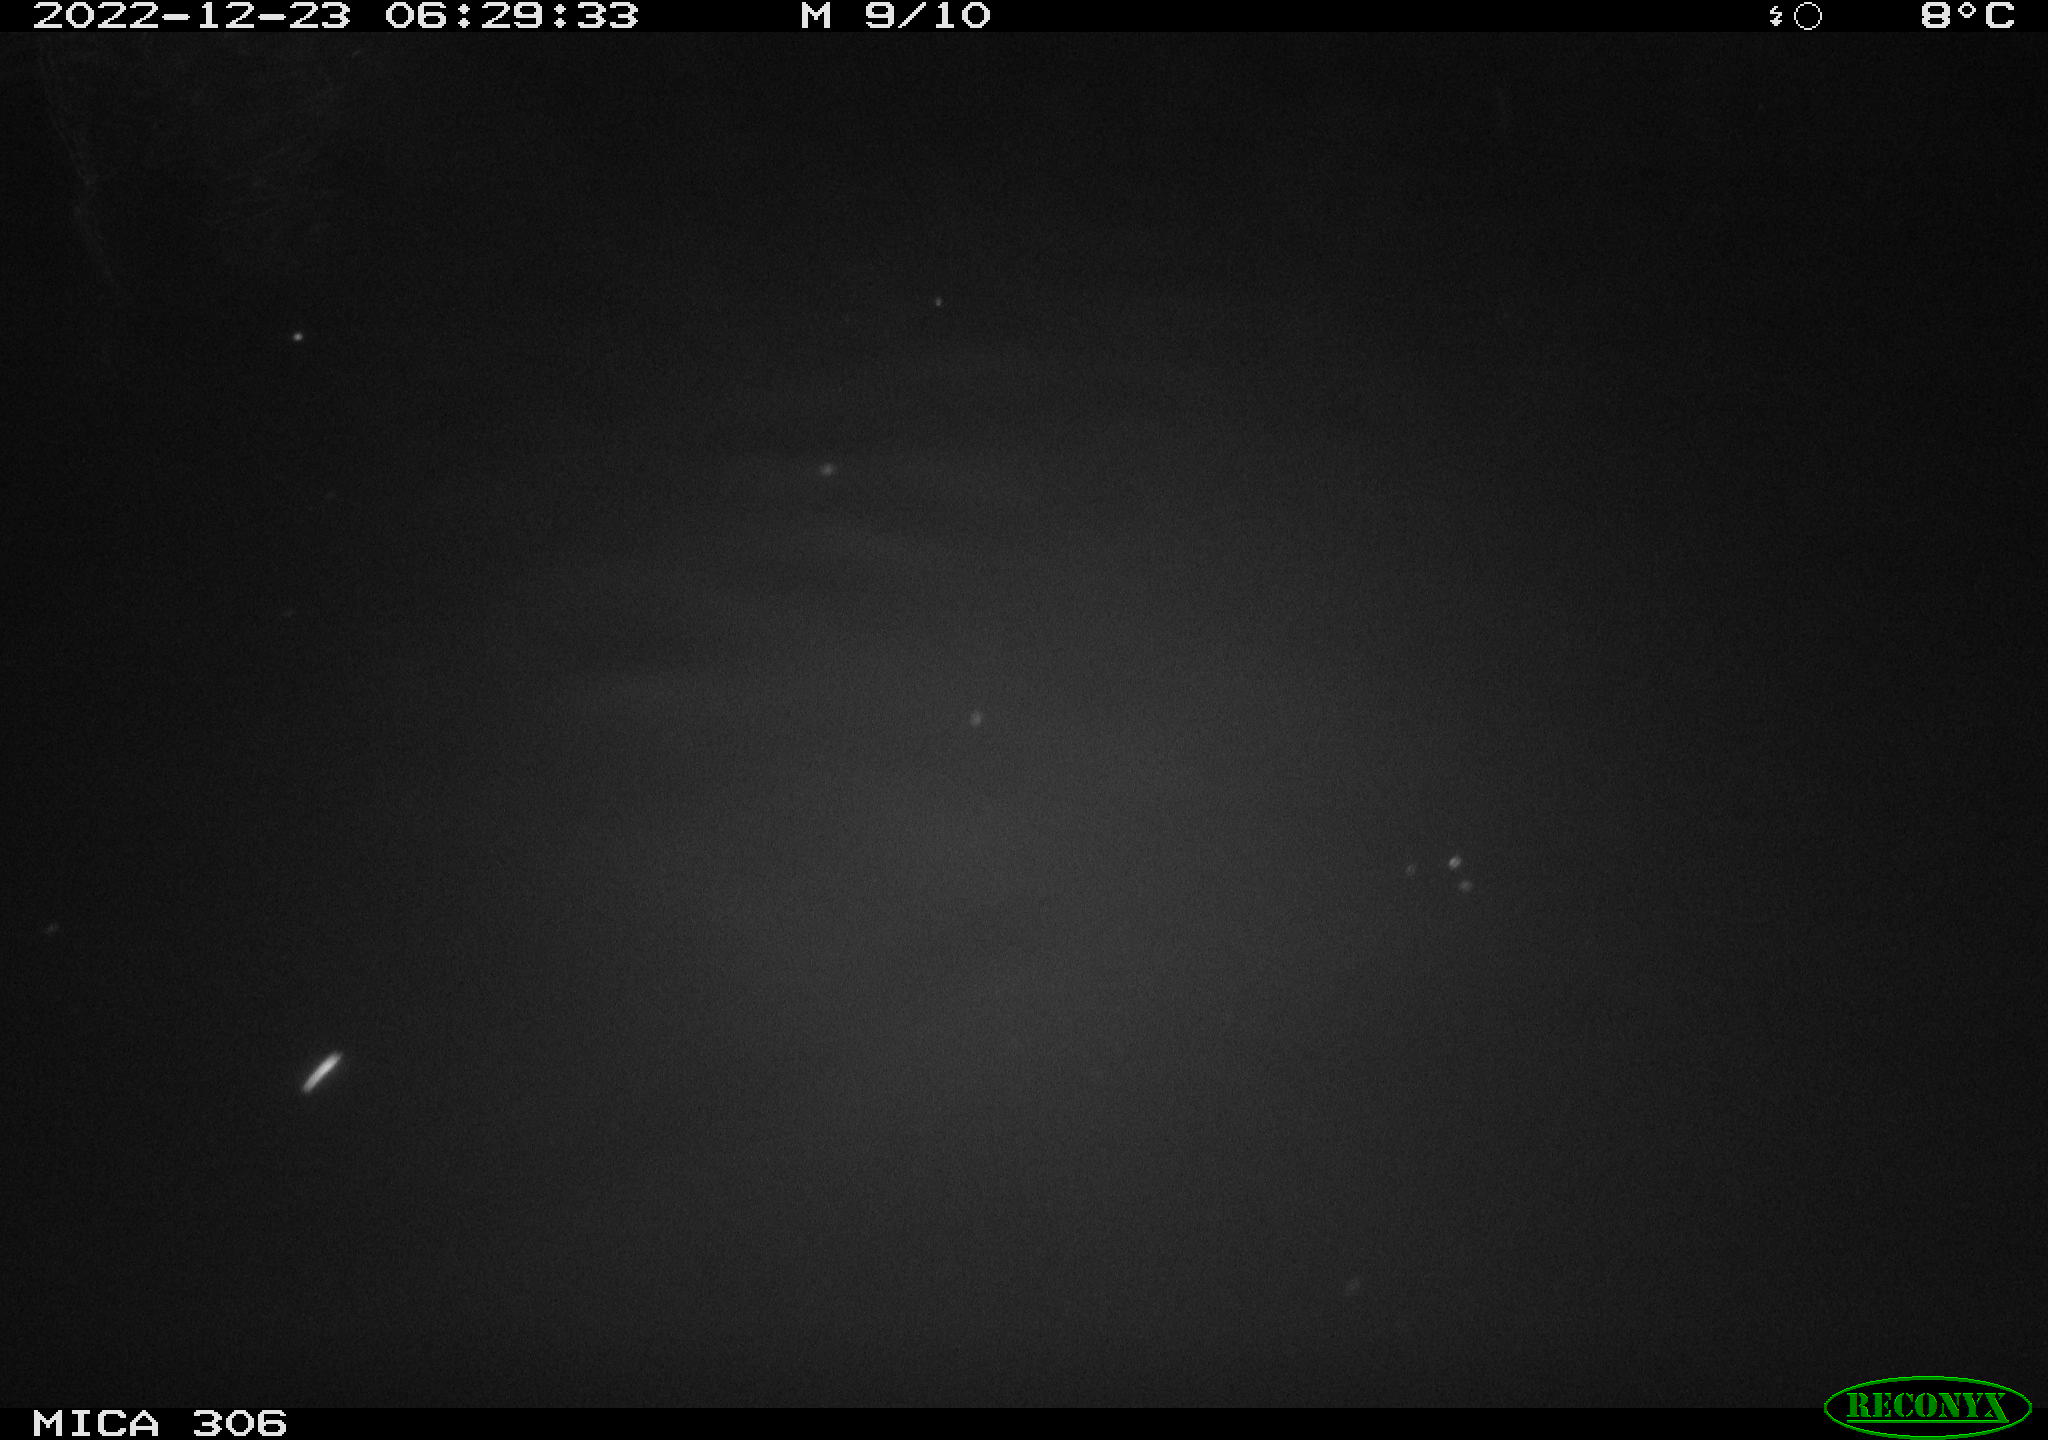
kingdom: Animalia
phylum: Chordata
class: Mammalia
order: Rodentia
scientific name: Rodentia
